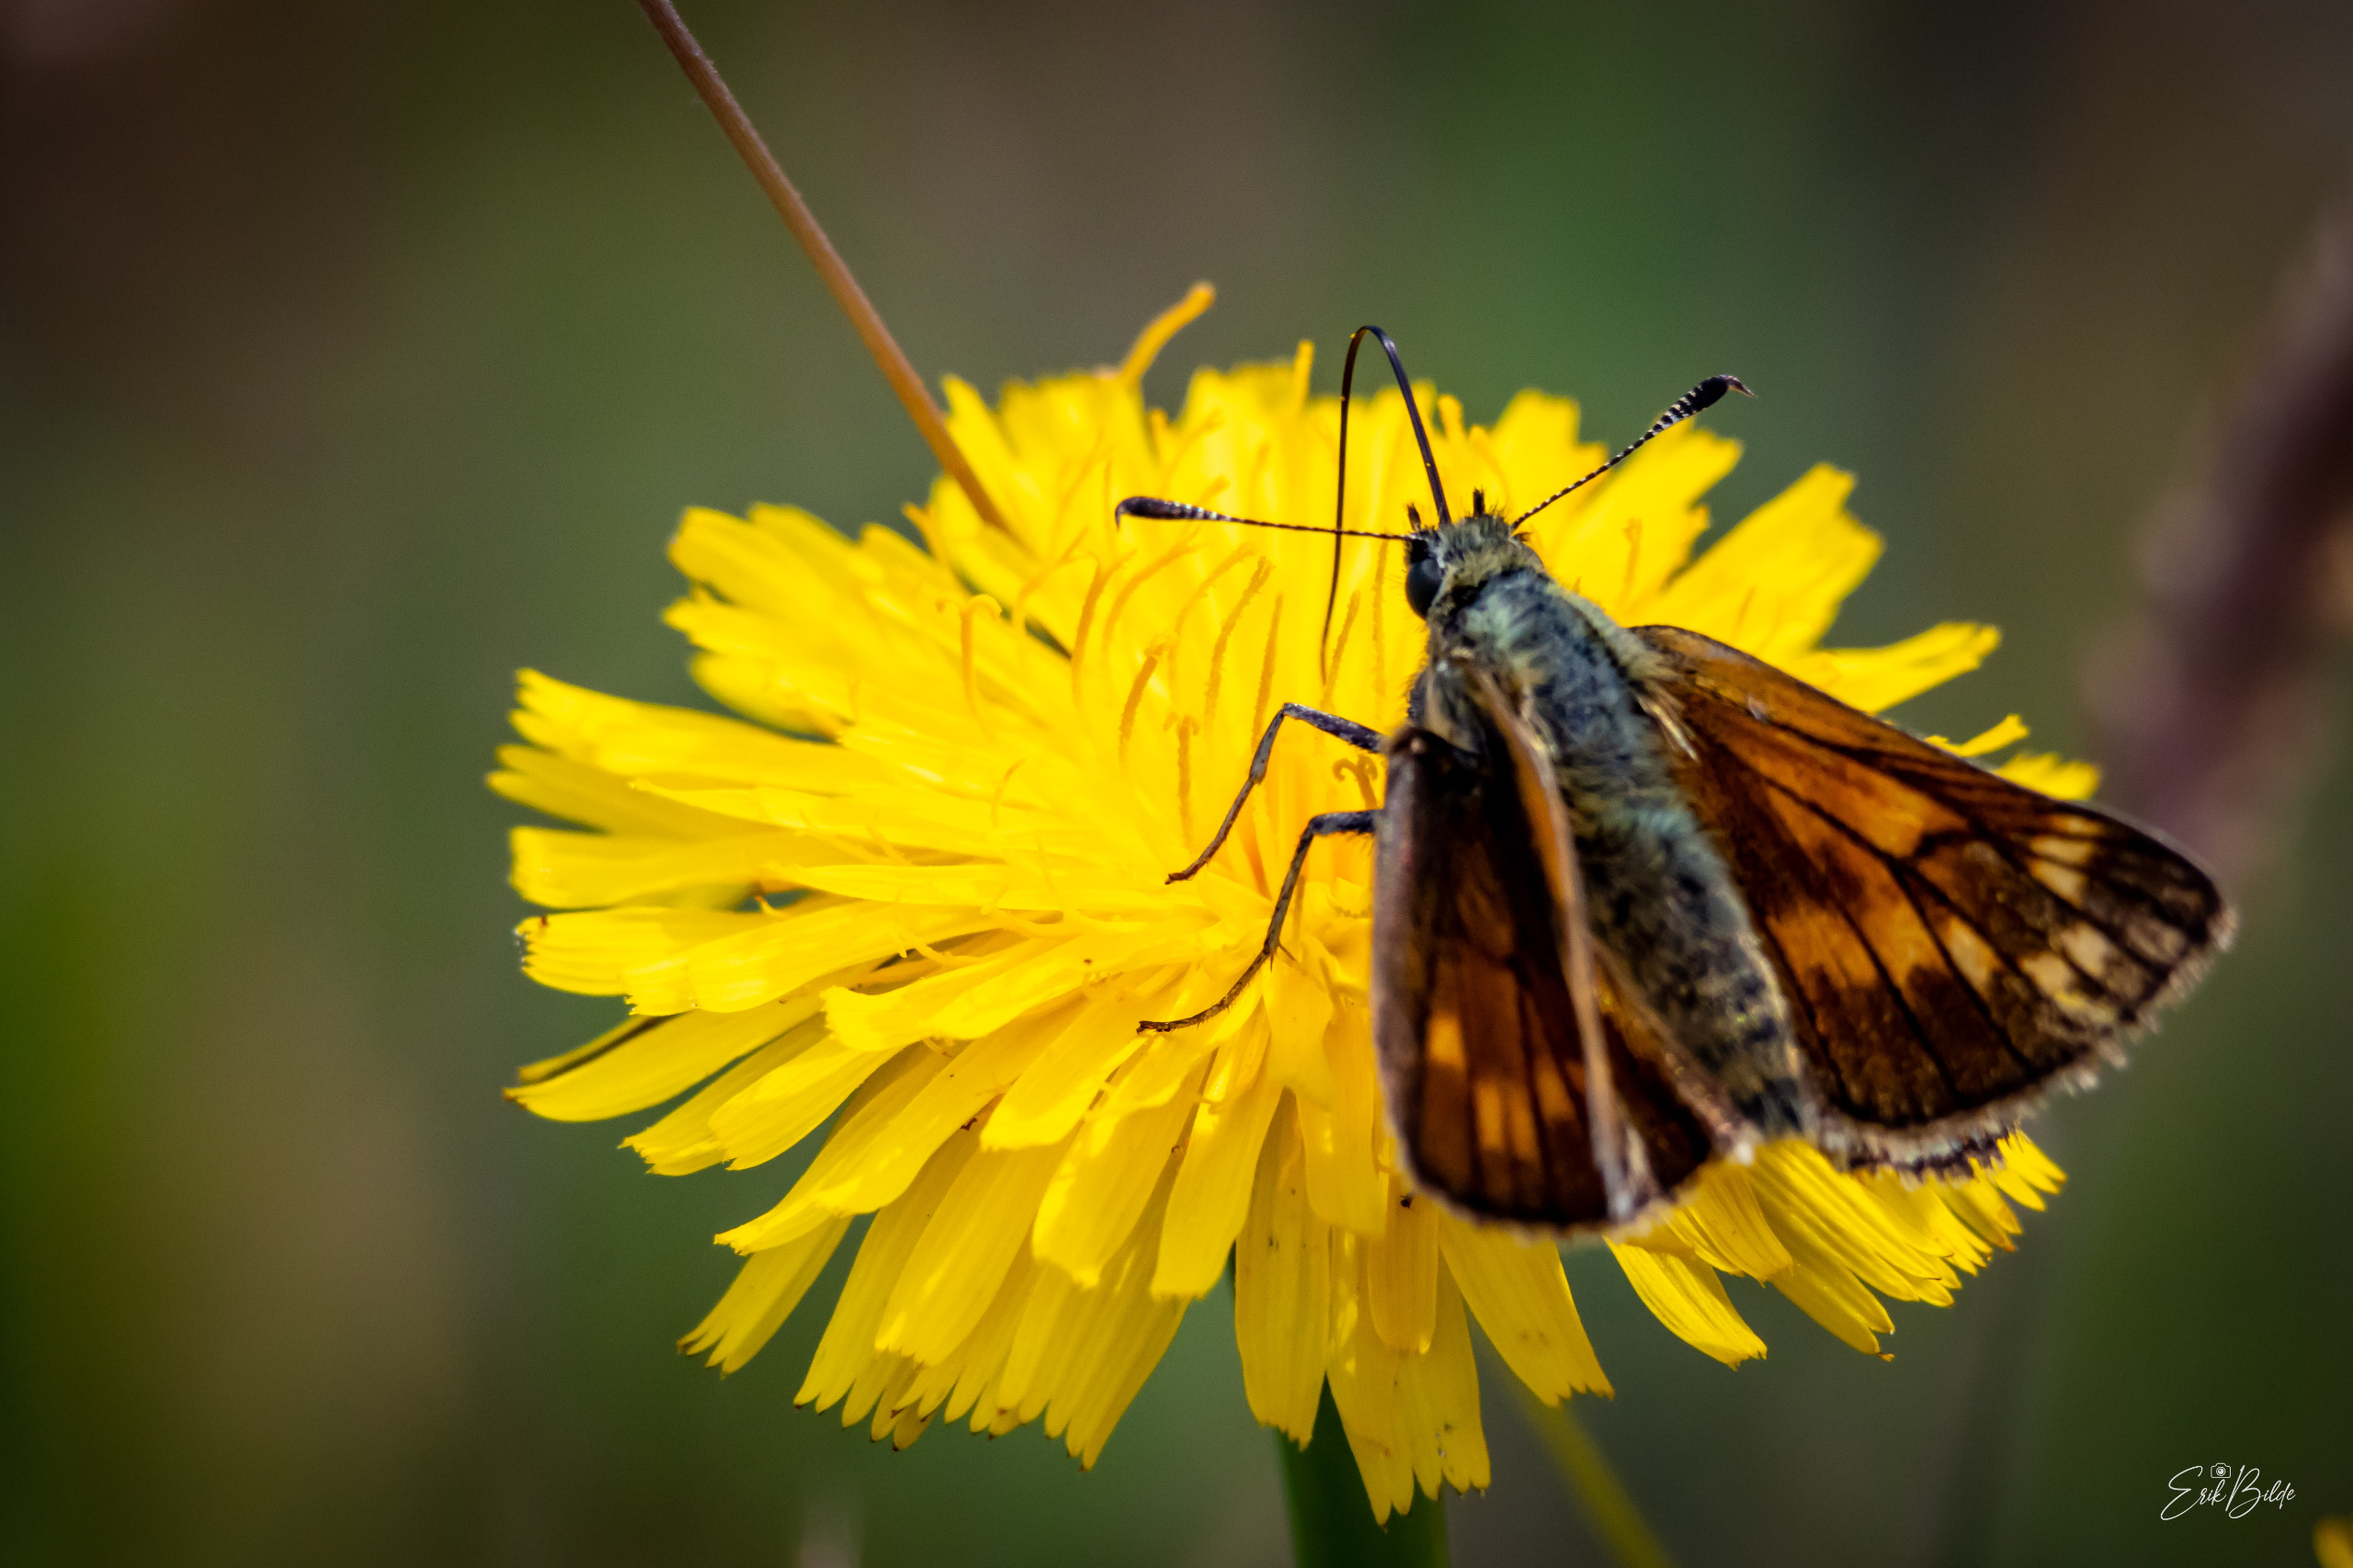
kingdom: Animalia
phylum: Arthropoda
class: Insecta
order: Lepidoptera
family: Hesperiidae
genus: Ochlodes
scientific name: Ochlodes venata
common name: Stor bredpande
